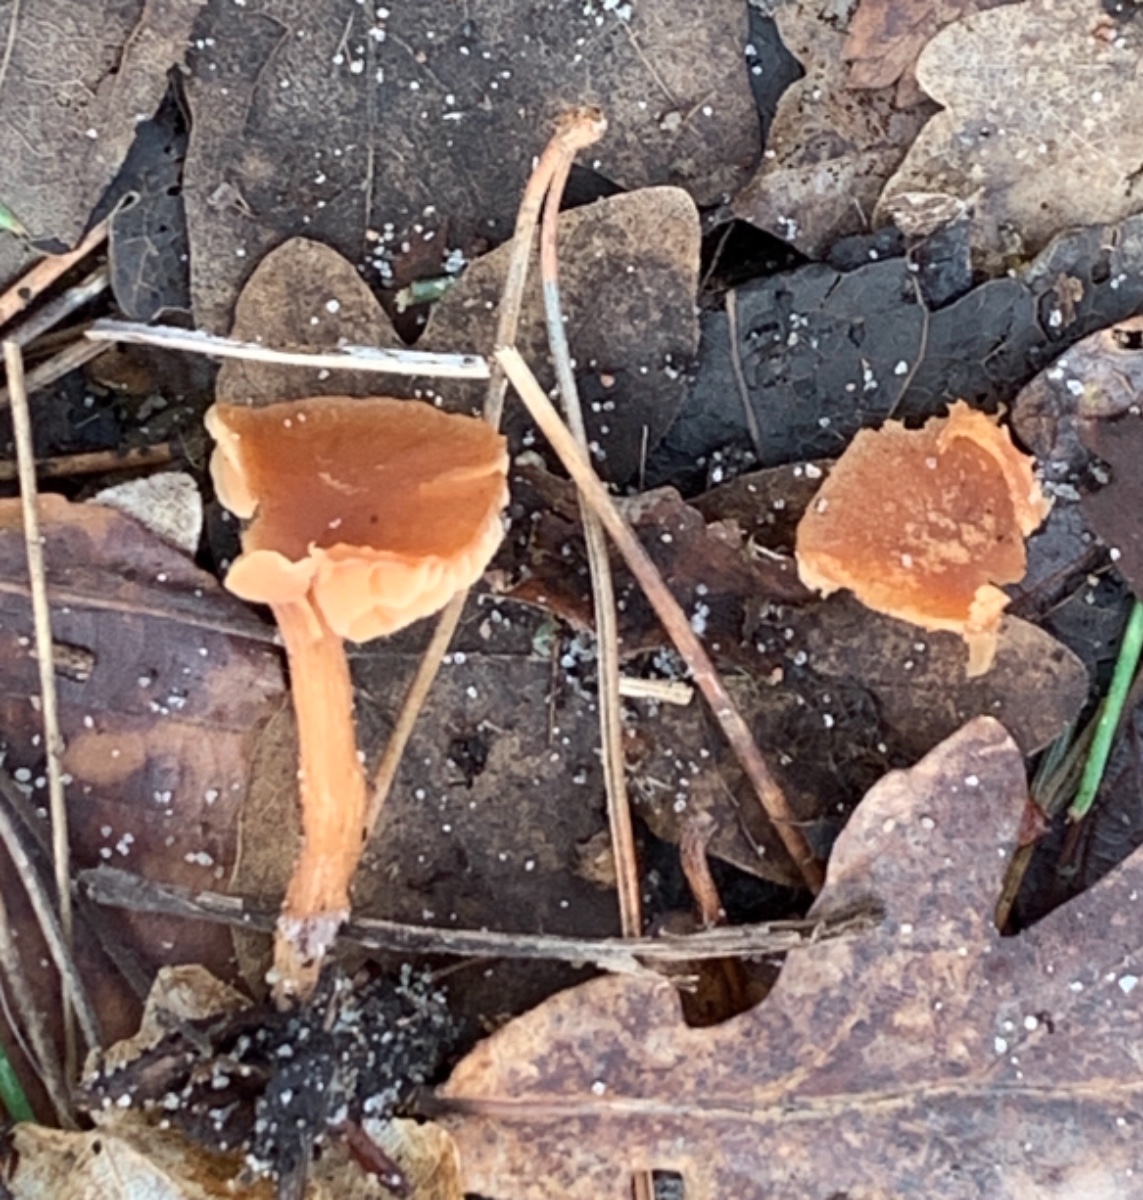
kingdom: Fungi
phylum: Basidiomycota
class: Agaricomycetes
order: Agaricales
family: Tubariaceae
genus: Tubaria
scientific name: Tubaria furfuracea
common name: kliddet fnughat
